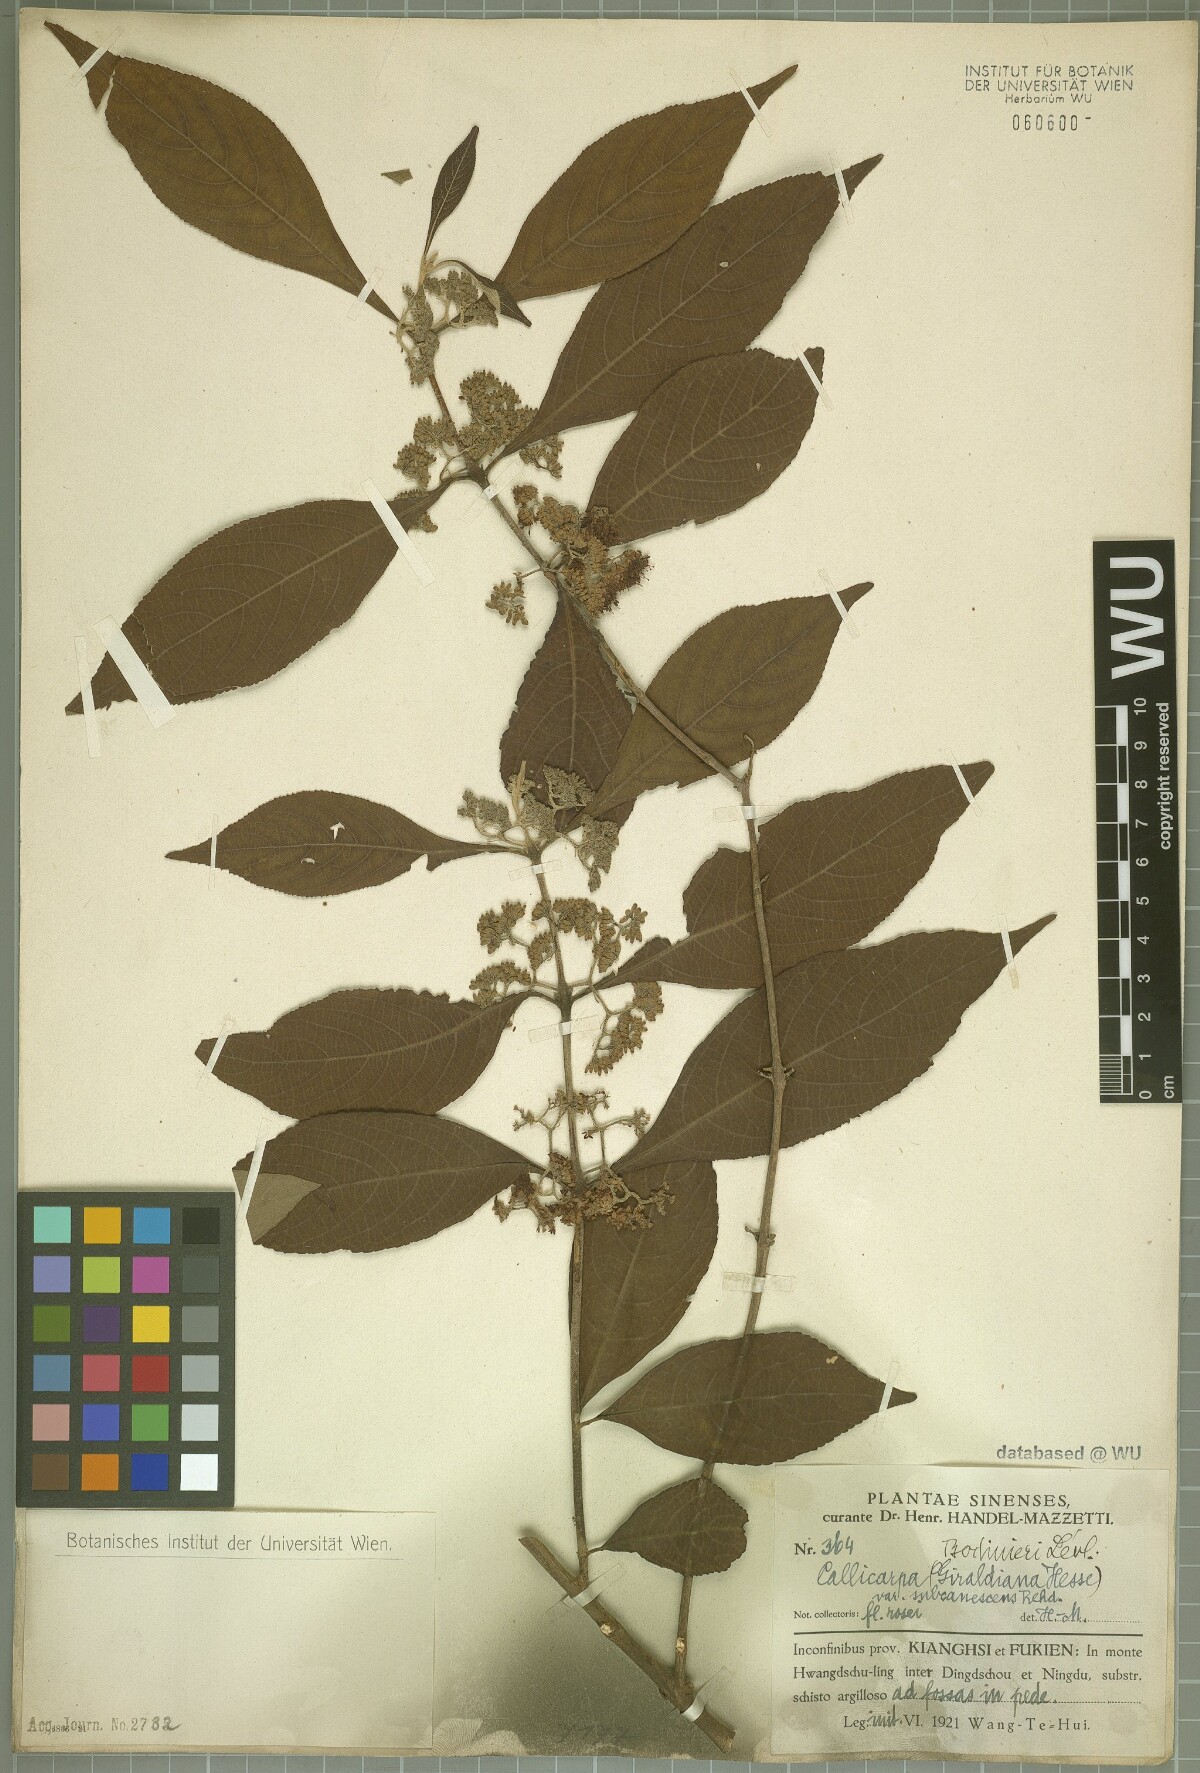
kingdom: Plantae
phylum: Tracheophyta
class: Magnoliopsida
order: Lamiales
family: Lamiaceae
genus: Callicarpa
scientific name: Callicarpa bodinieri
